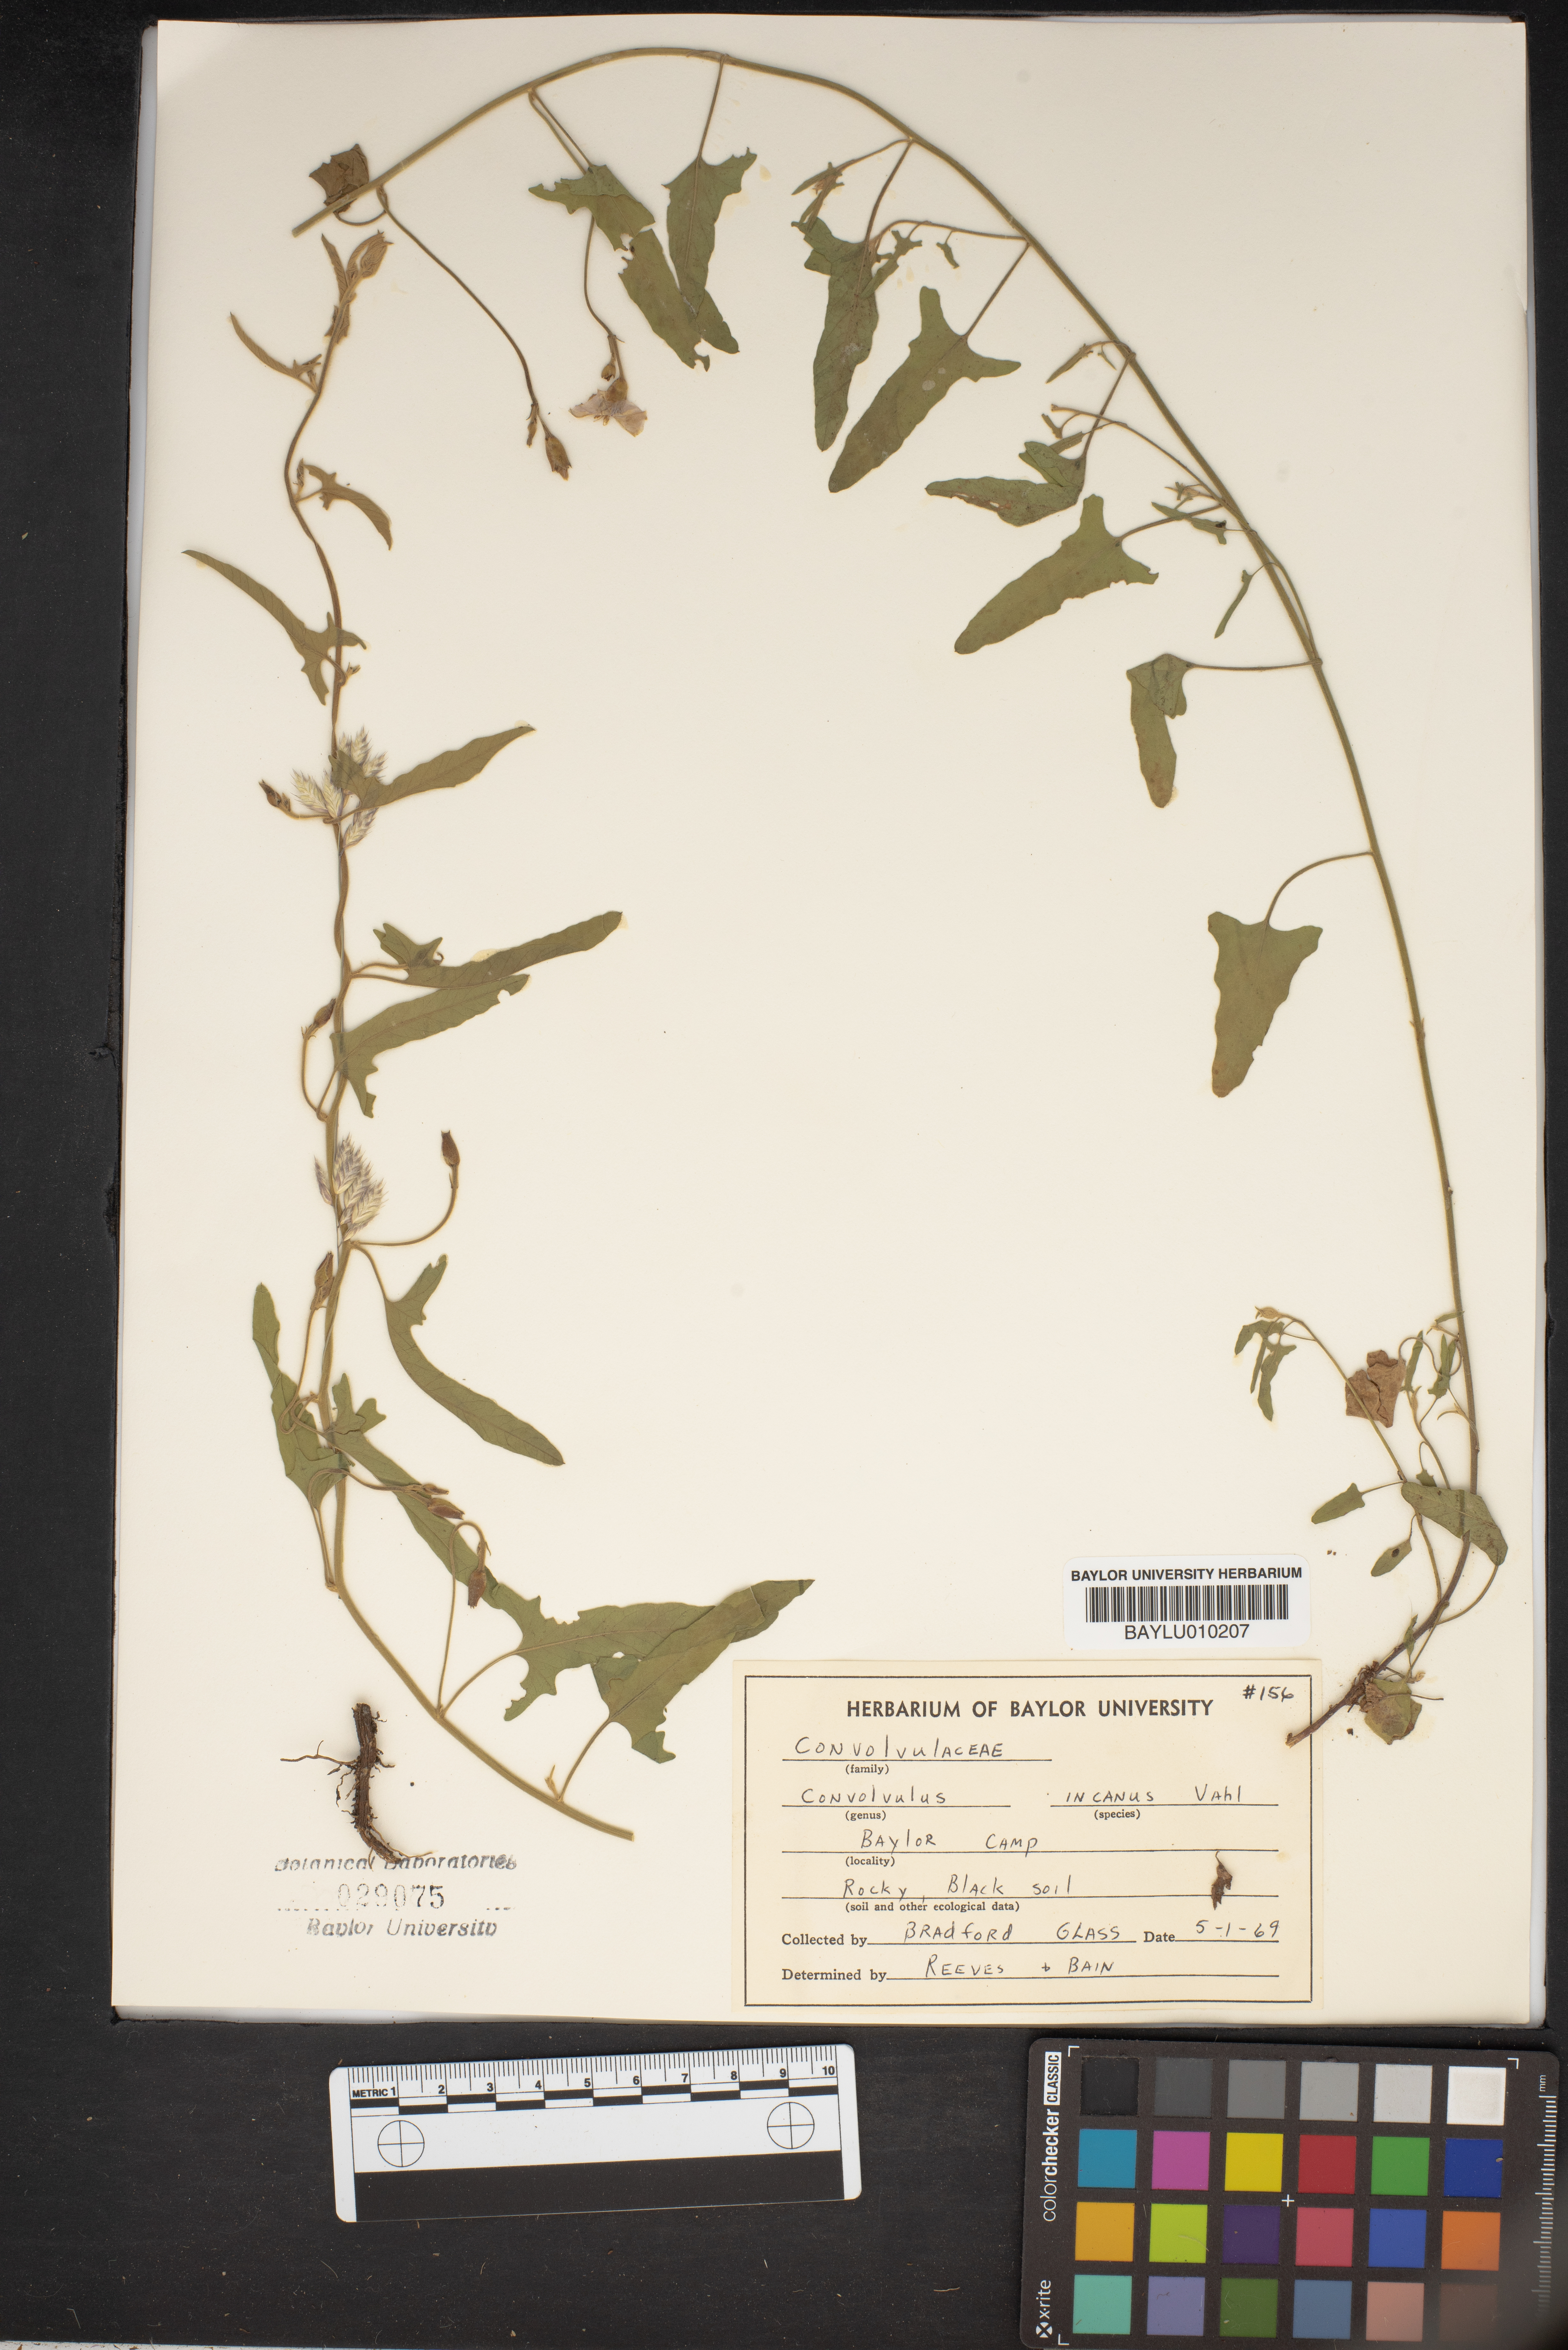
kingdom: Plantae
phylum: Tracheophyta
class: Magnoliopsida
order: Solanales
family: Convolvulaceae
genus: Convolvulus
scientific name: Convolvulus hermanniae
